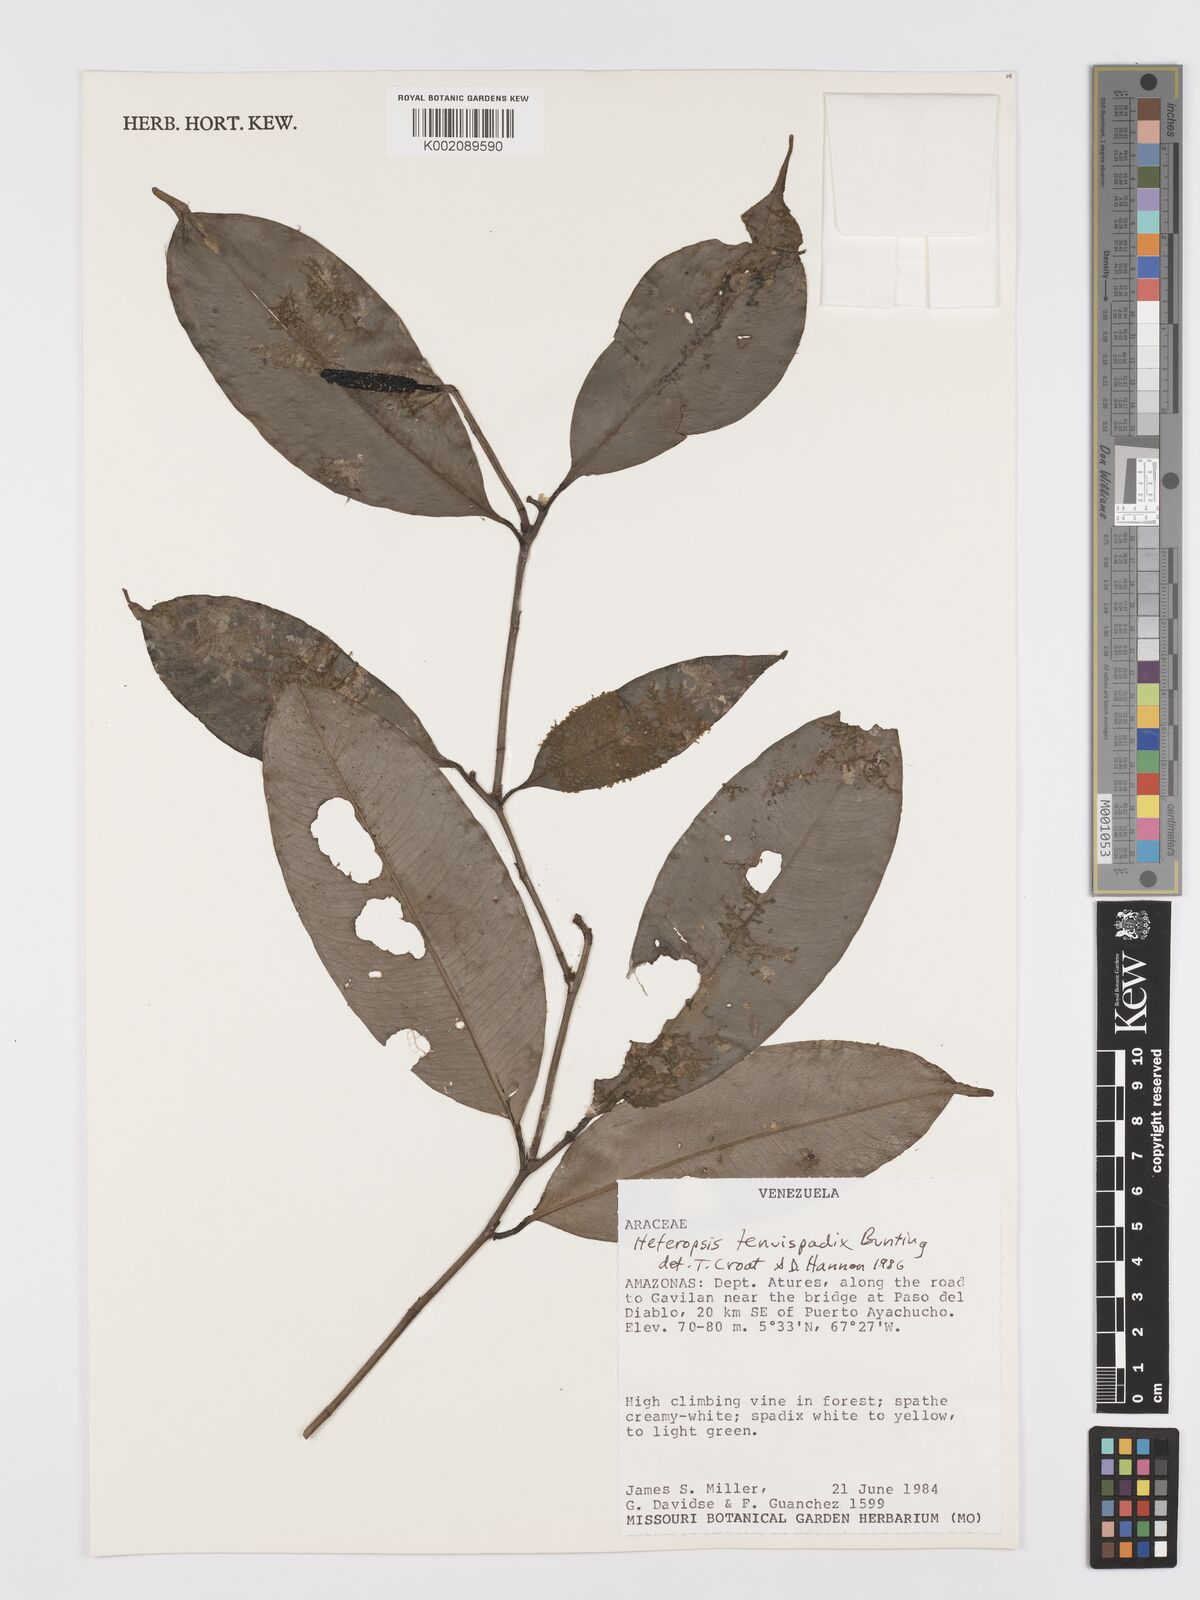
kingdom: Plantae
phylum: Tracheophyta
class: Liliopsida
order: Alismatales
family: Araceae
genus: Heteropsis
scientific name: Heteropsis tenuispadix
